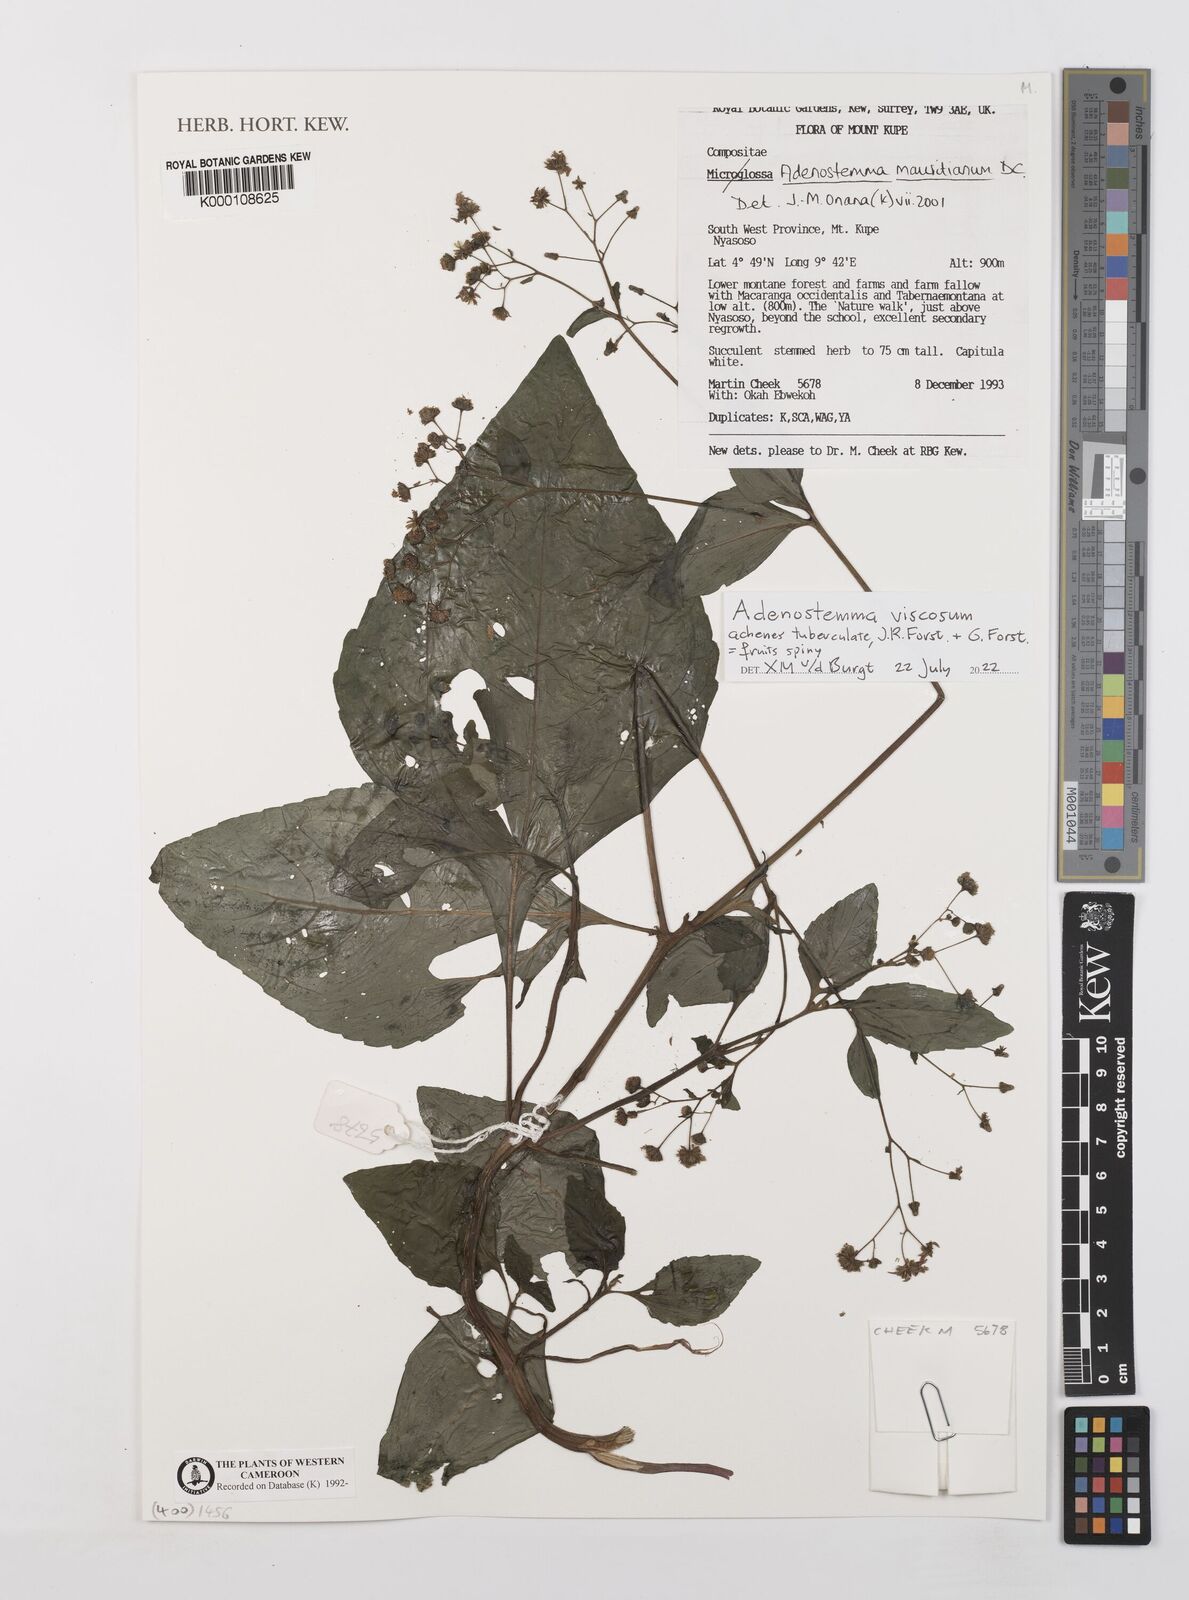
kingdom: Plantae
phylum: Tracheophyta
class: Magnoliopsida
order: Asterales
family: Asteraceae
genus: Adenostemma
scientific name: Adenostemma mauritianum
